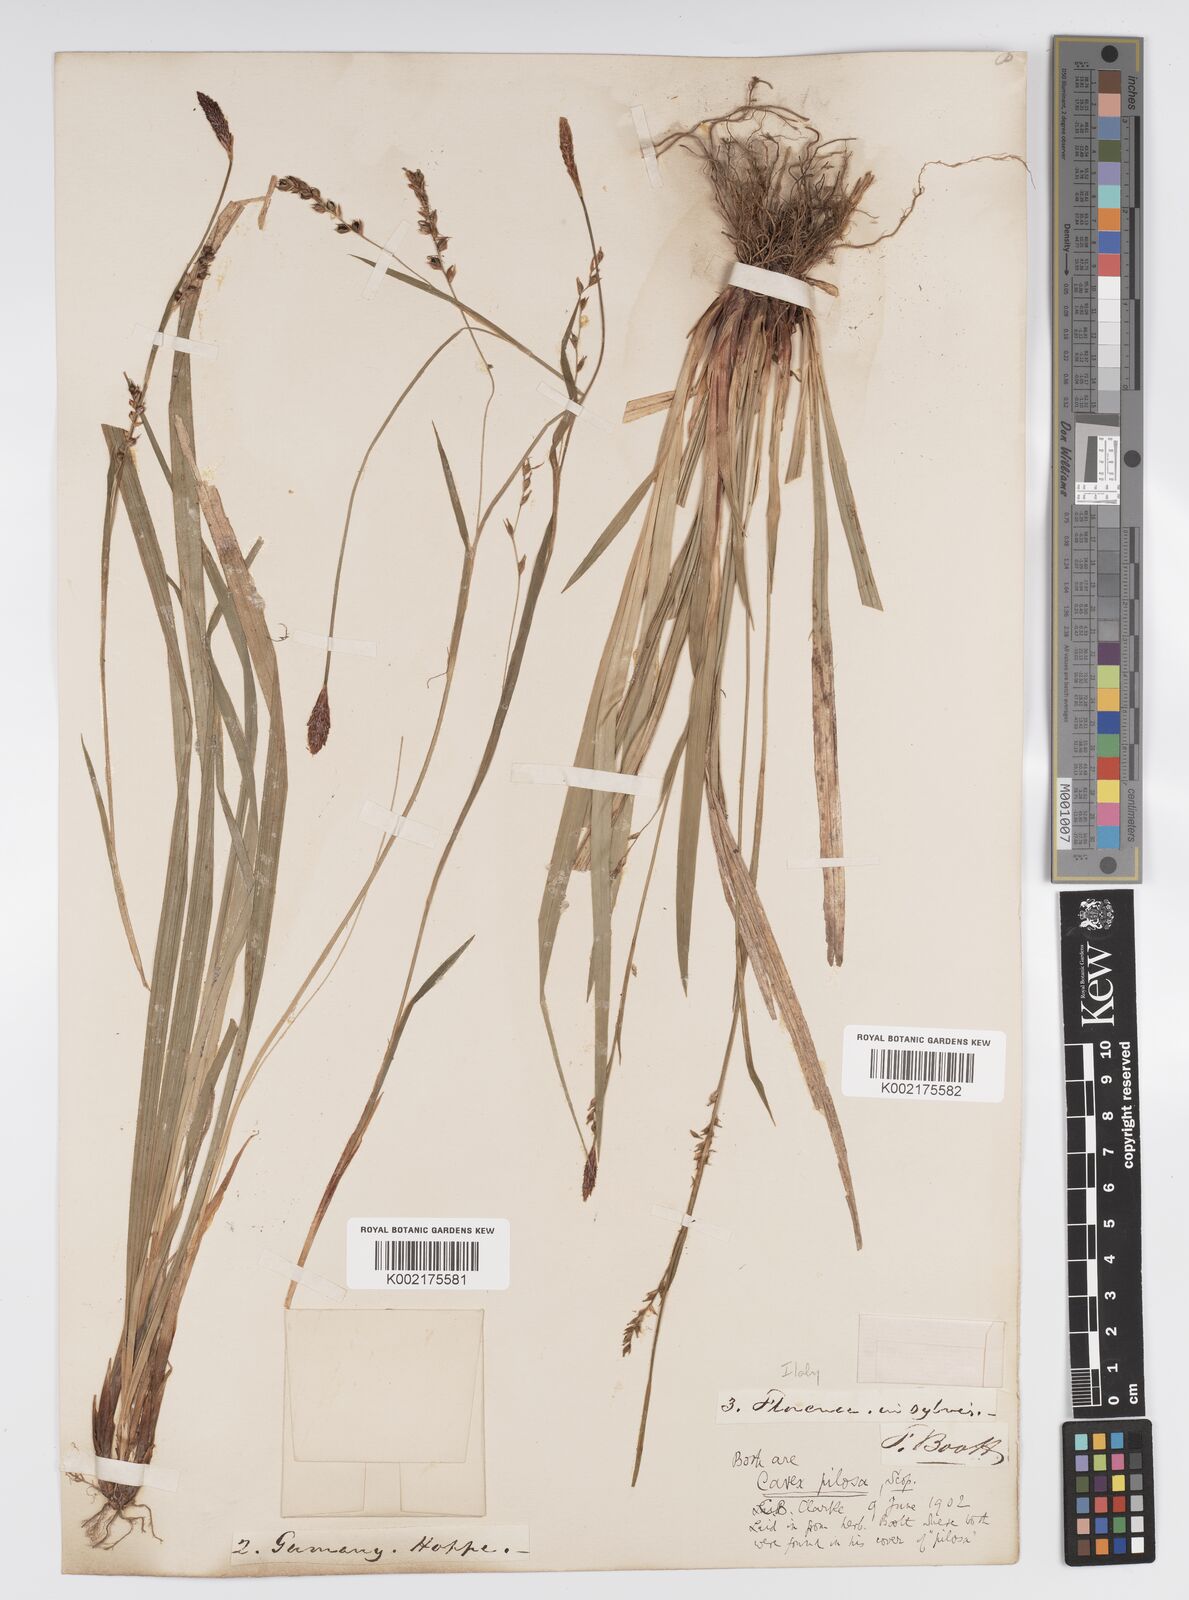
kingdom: Plantae
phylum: Tracheophyta
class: Liliopsida
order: Poales
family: Cyperaceae
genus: Carex
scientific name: Carex pilosa
